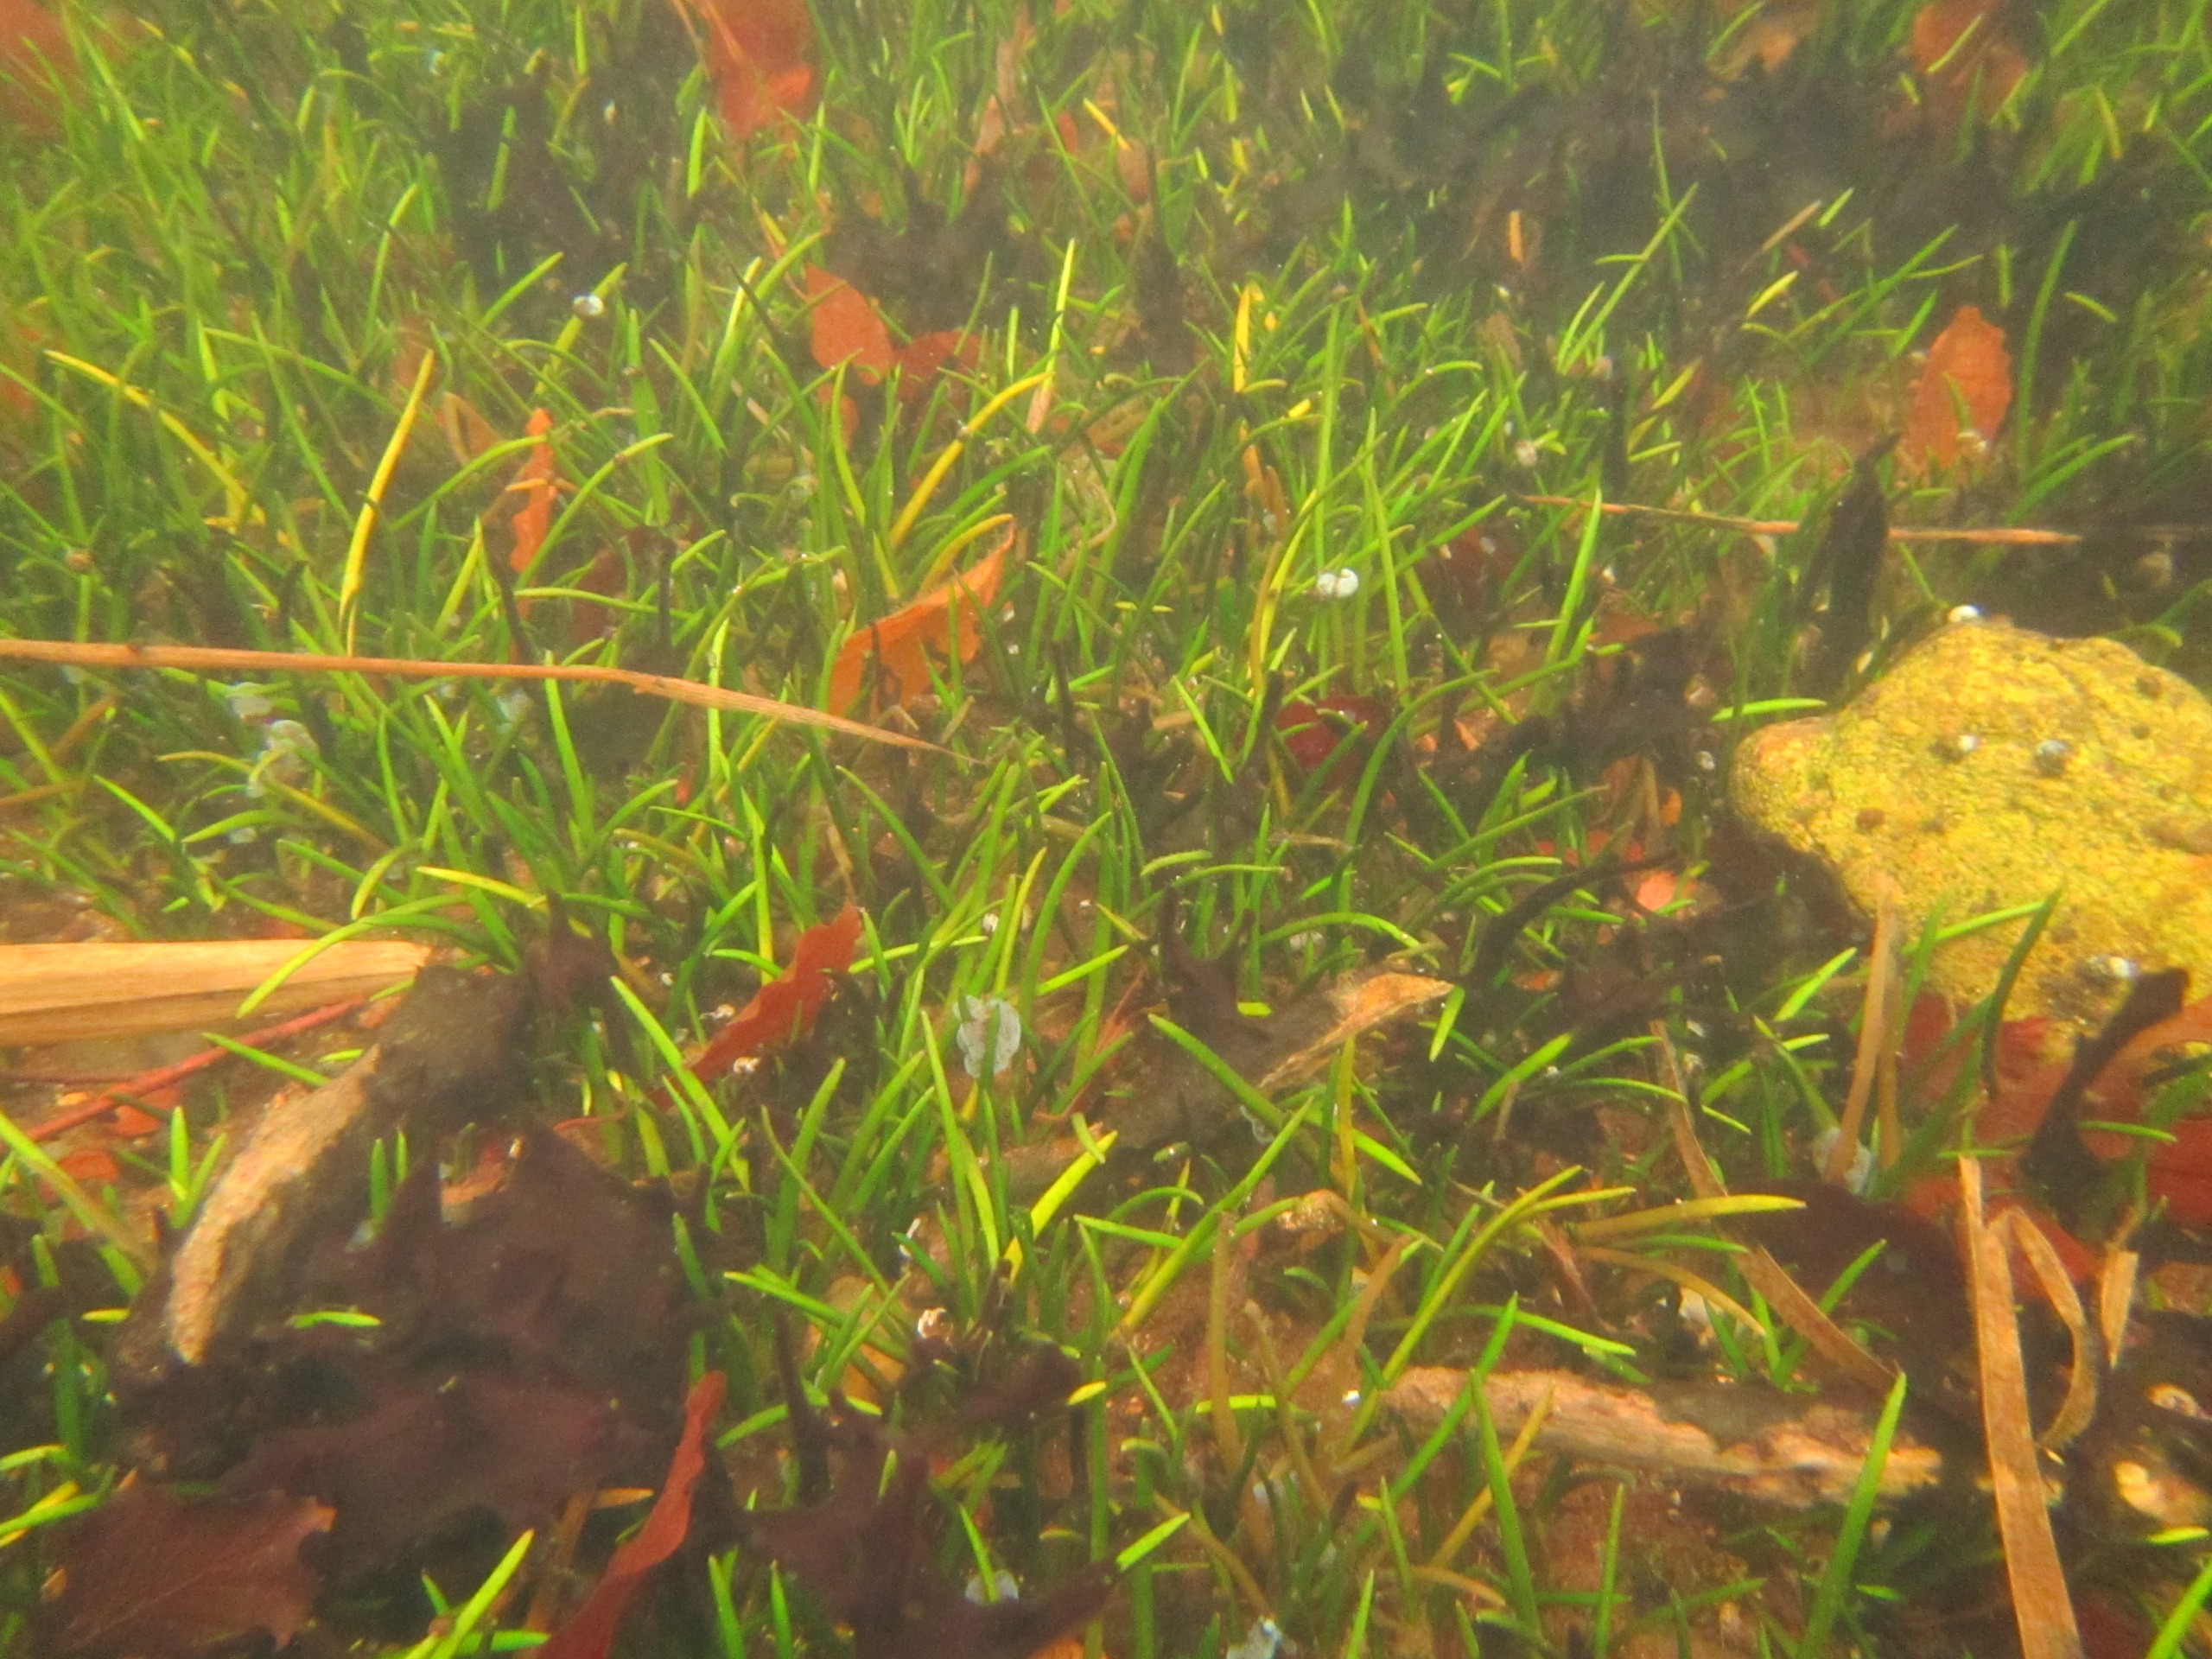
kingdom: Plantae
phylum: Tracheophyta
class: Magnoliopsida
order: Lamiales
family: Plantaginaceae
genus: Littorella
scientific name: Littorella uniflora
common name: Strandbo
